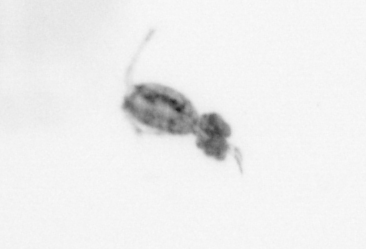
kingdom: Animalia
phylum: Arthropoda
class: Copepoda
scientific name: Copepoda
